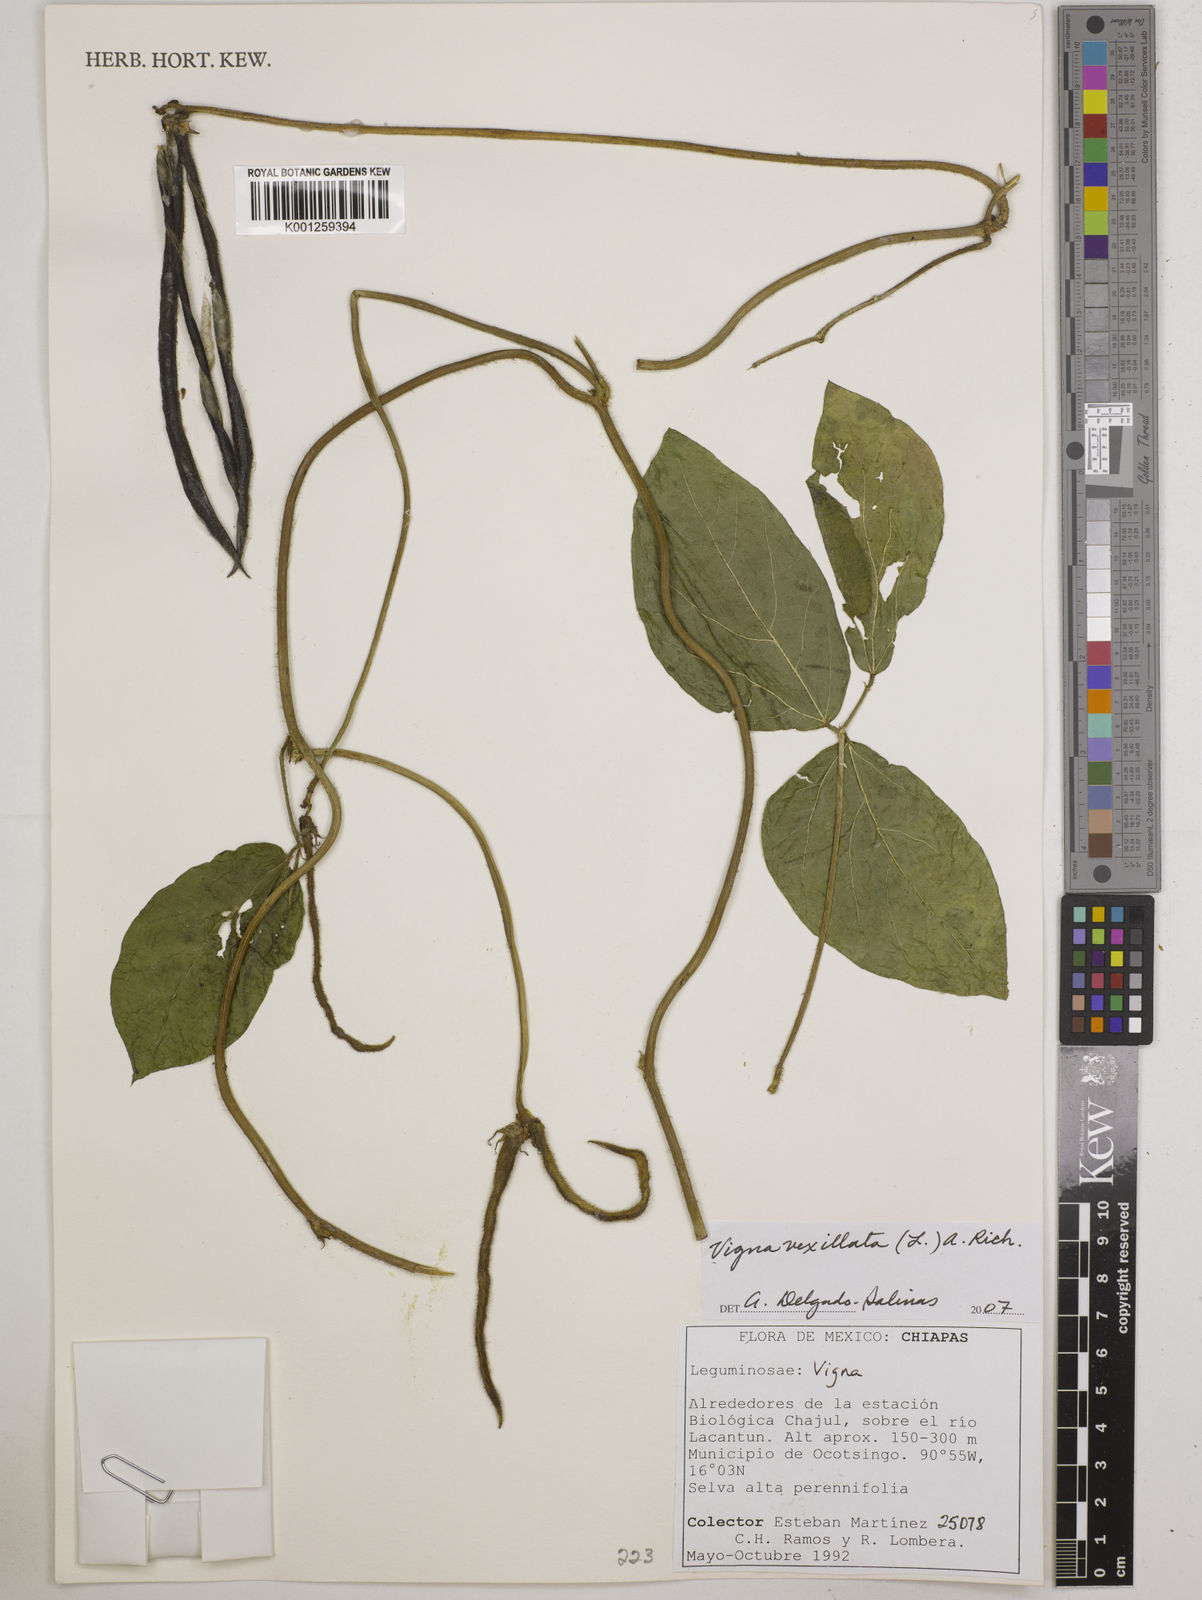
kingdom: Plantae
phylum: Tracheophyta
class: Magnoliopsida
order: Fabales
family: Fabaceae
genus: Vigna
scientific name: Vigna vexillata
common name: Zombi pea
